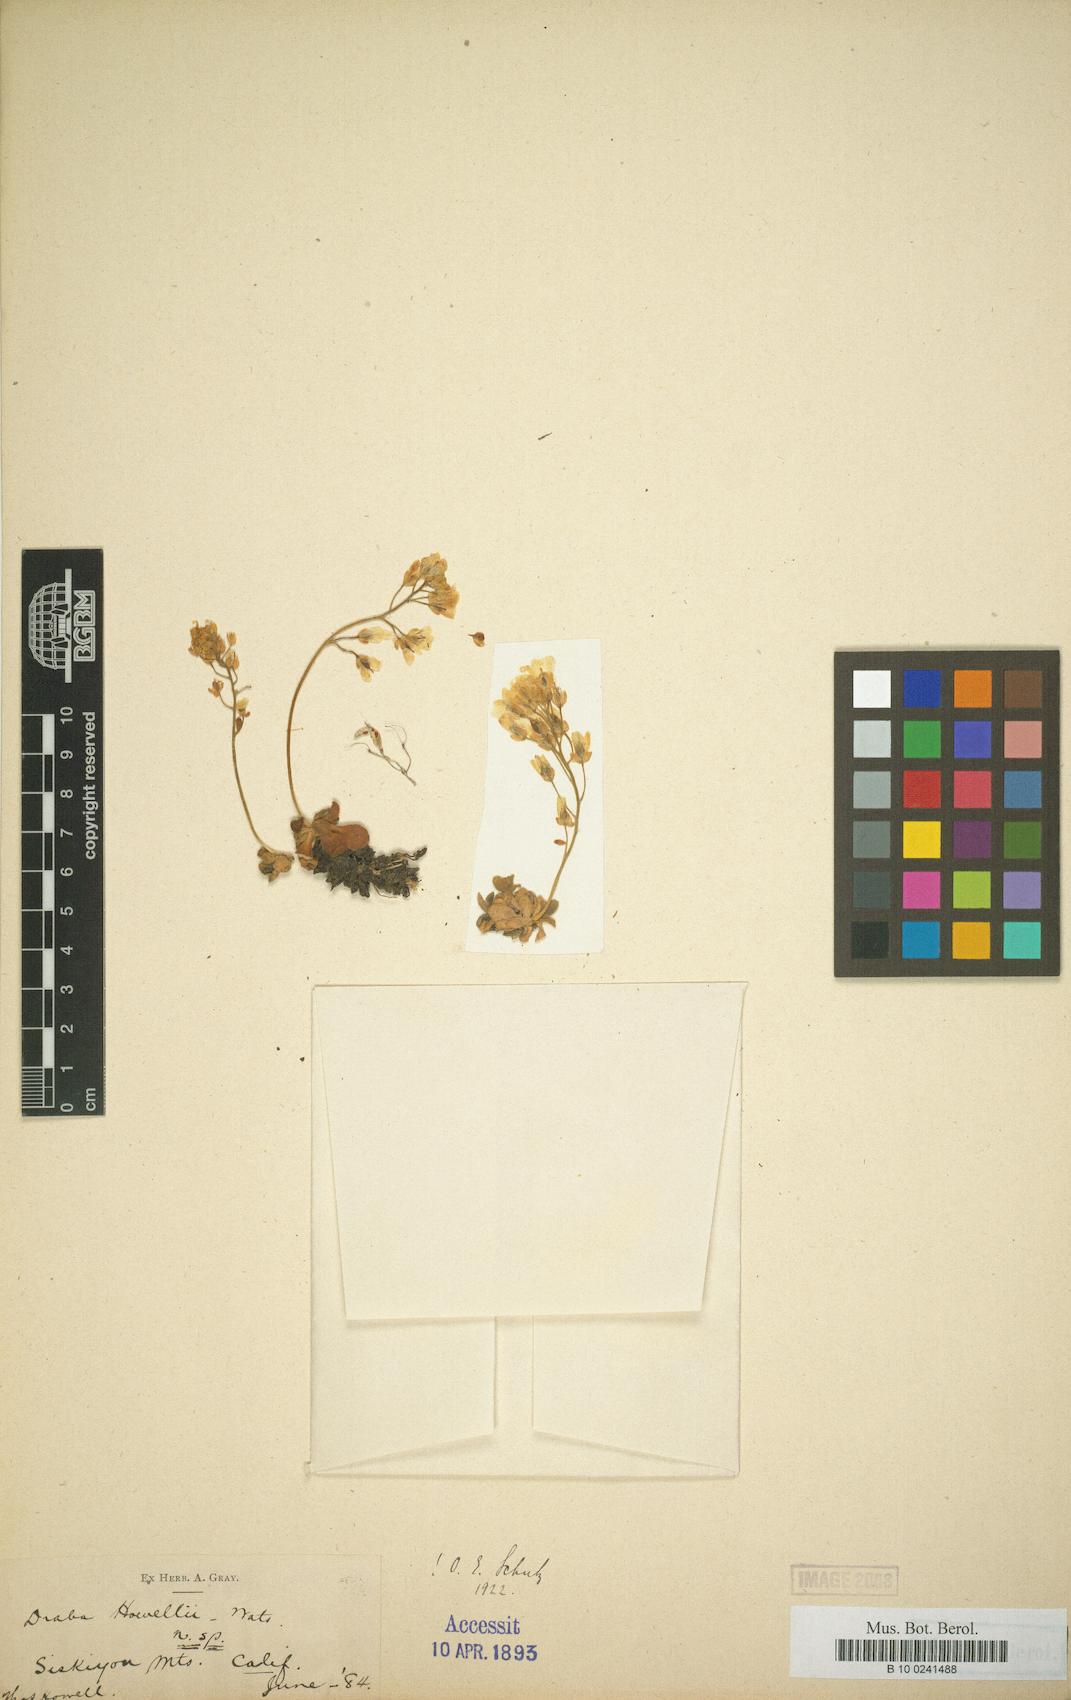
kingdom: Plantae
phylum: Tracheophyta
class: Magnoliopsida
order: Brassicales
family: Brassicaceae
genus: Draba
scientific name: Draba howellii
